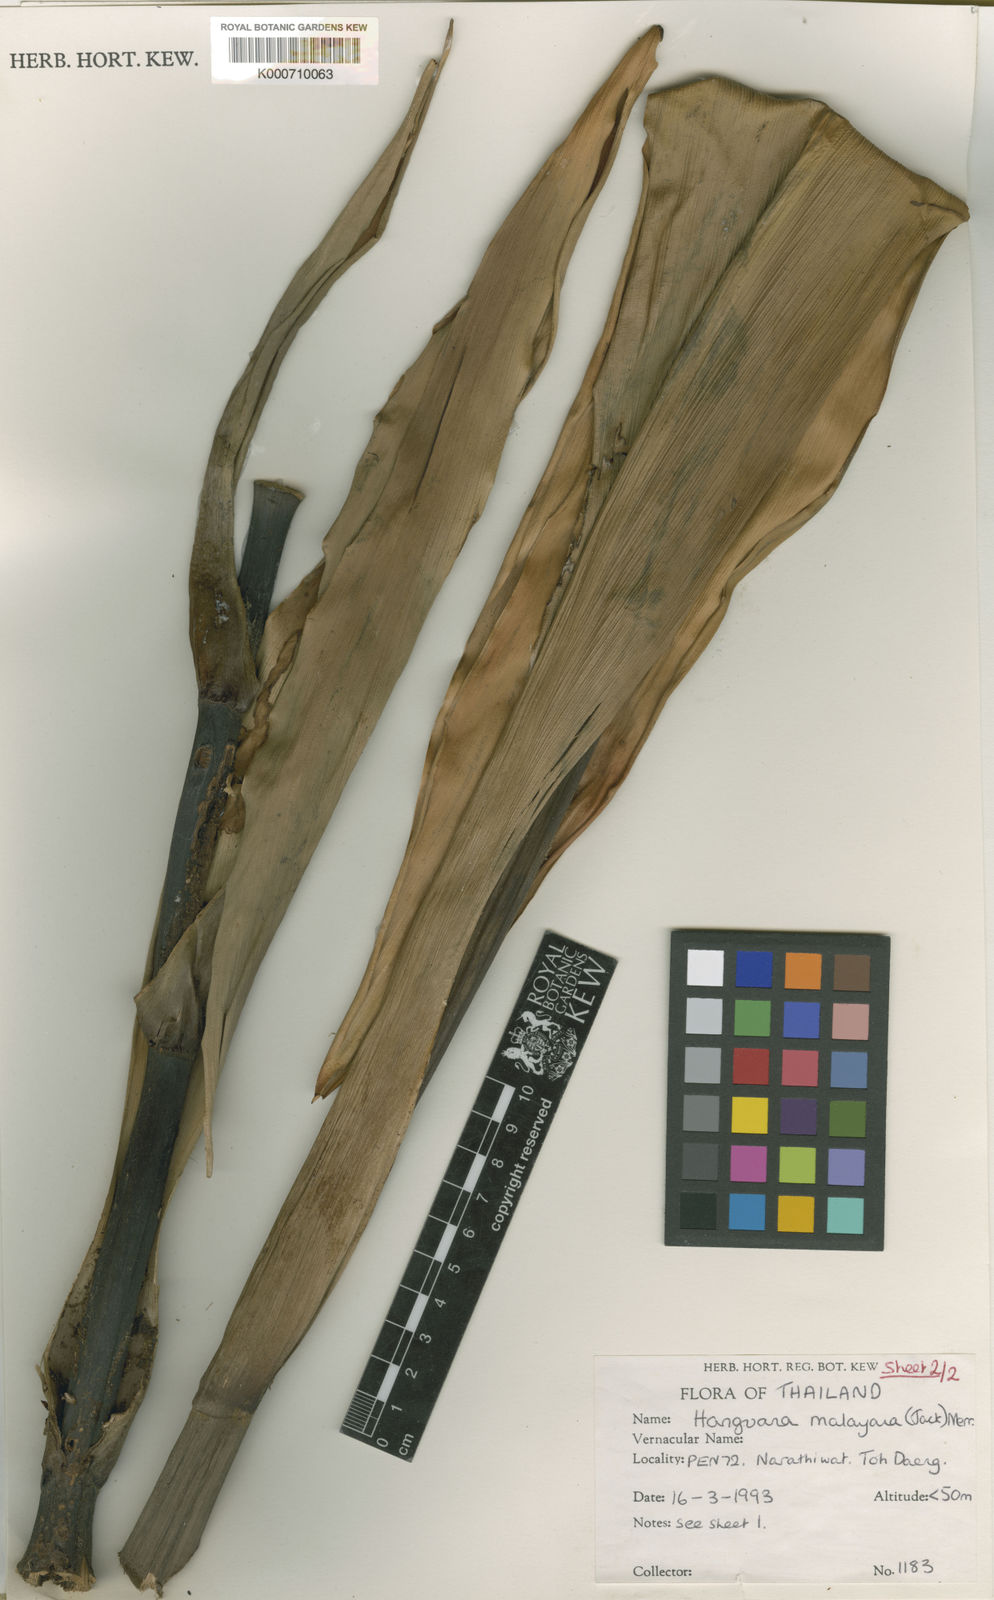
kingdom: Plantae
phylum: Tracheophyta
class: Liliopsida
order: Commelinales
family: Hanguanaceae
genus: Hanguana
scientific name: Hanguana malayana
